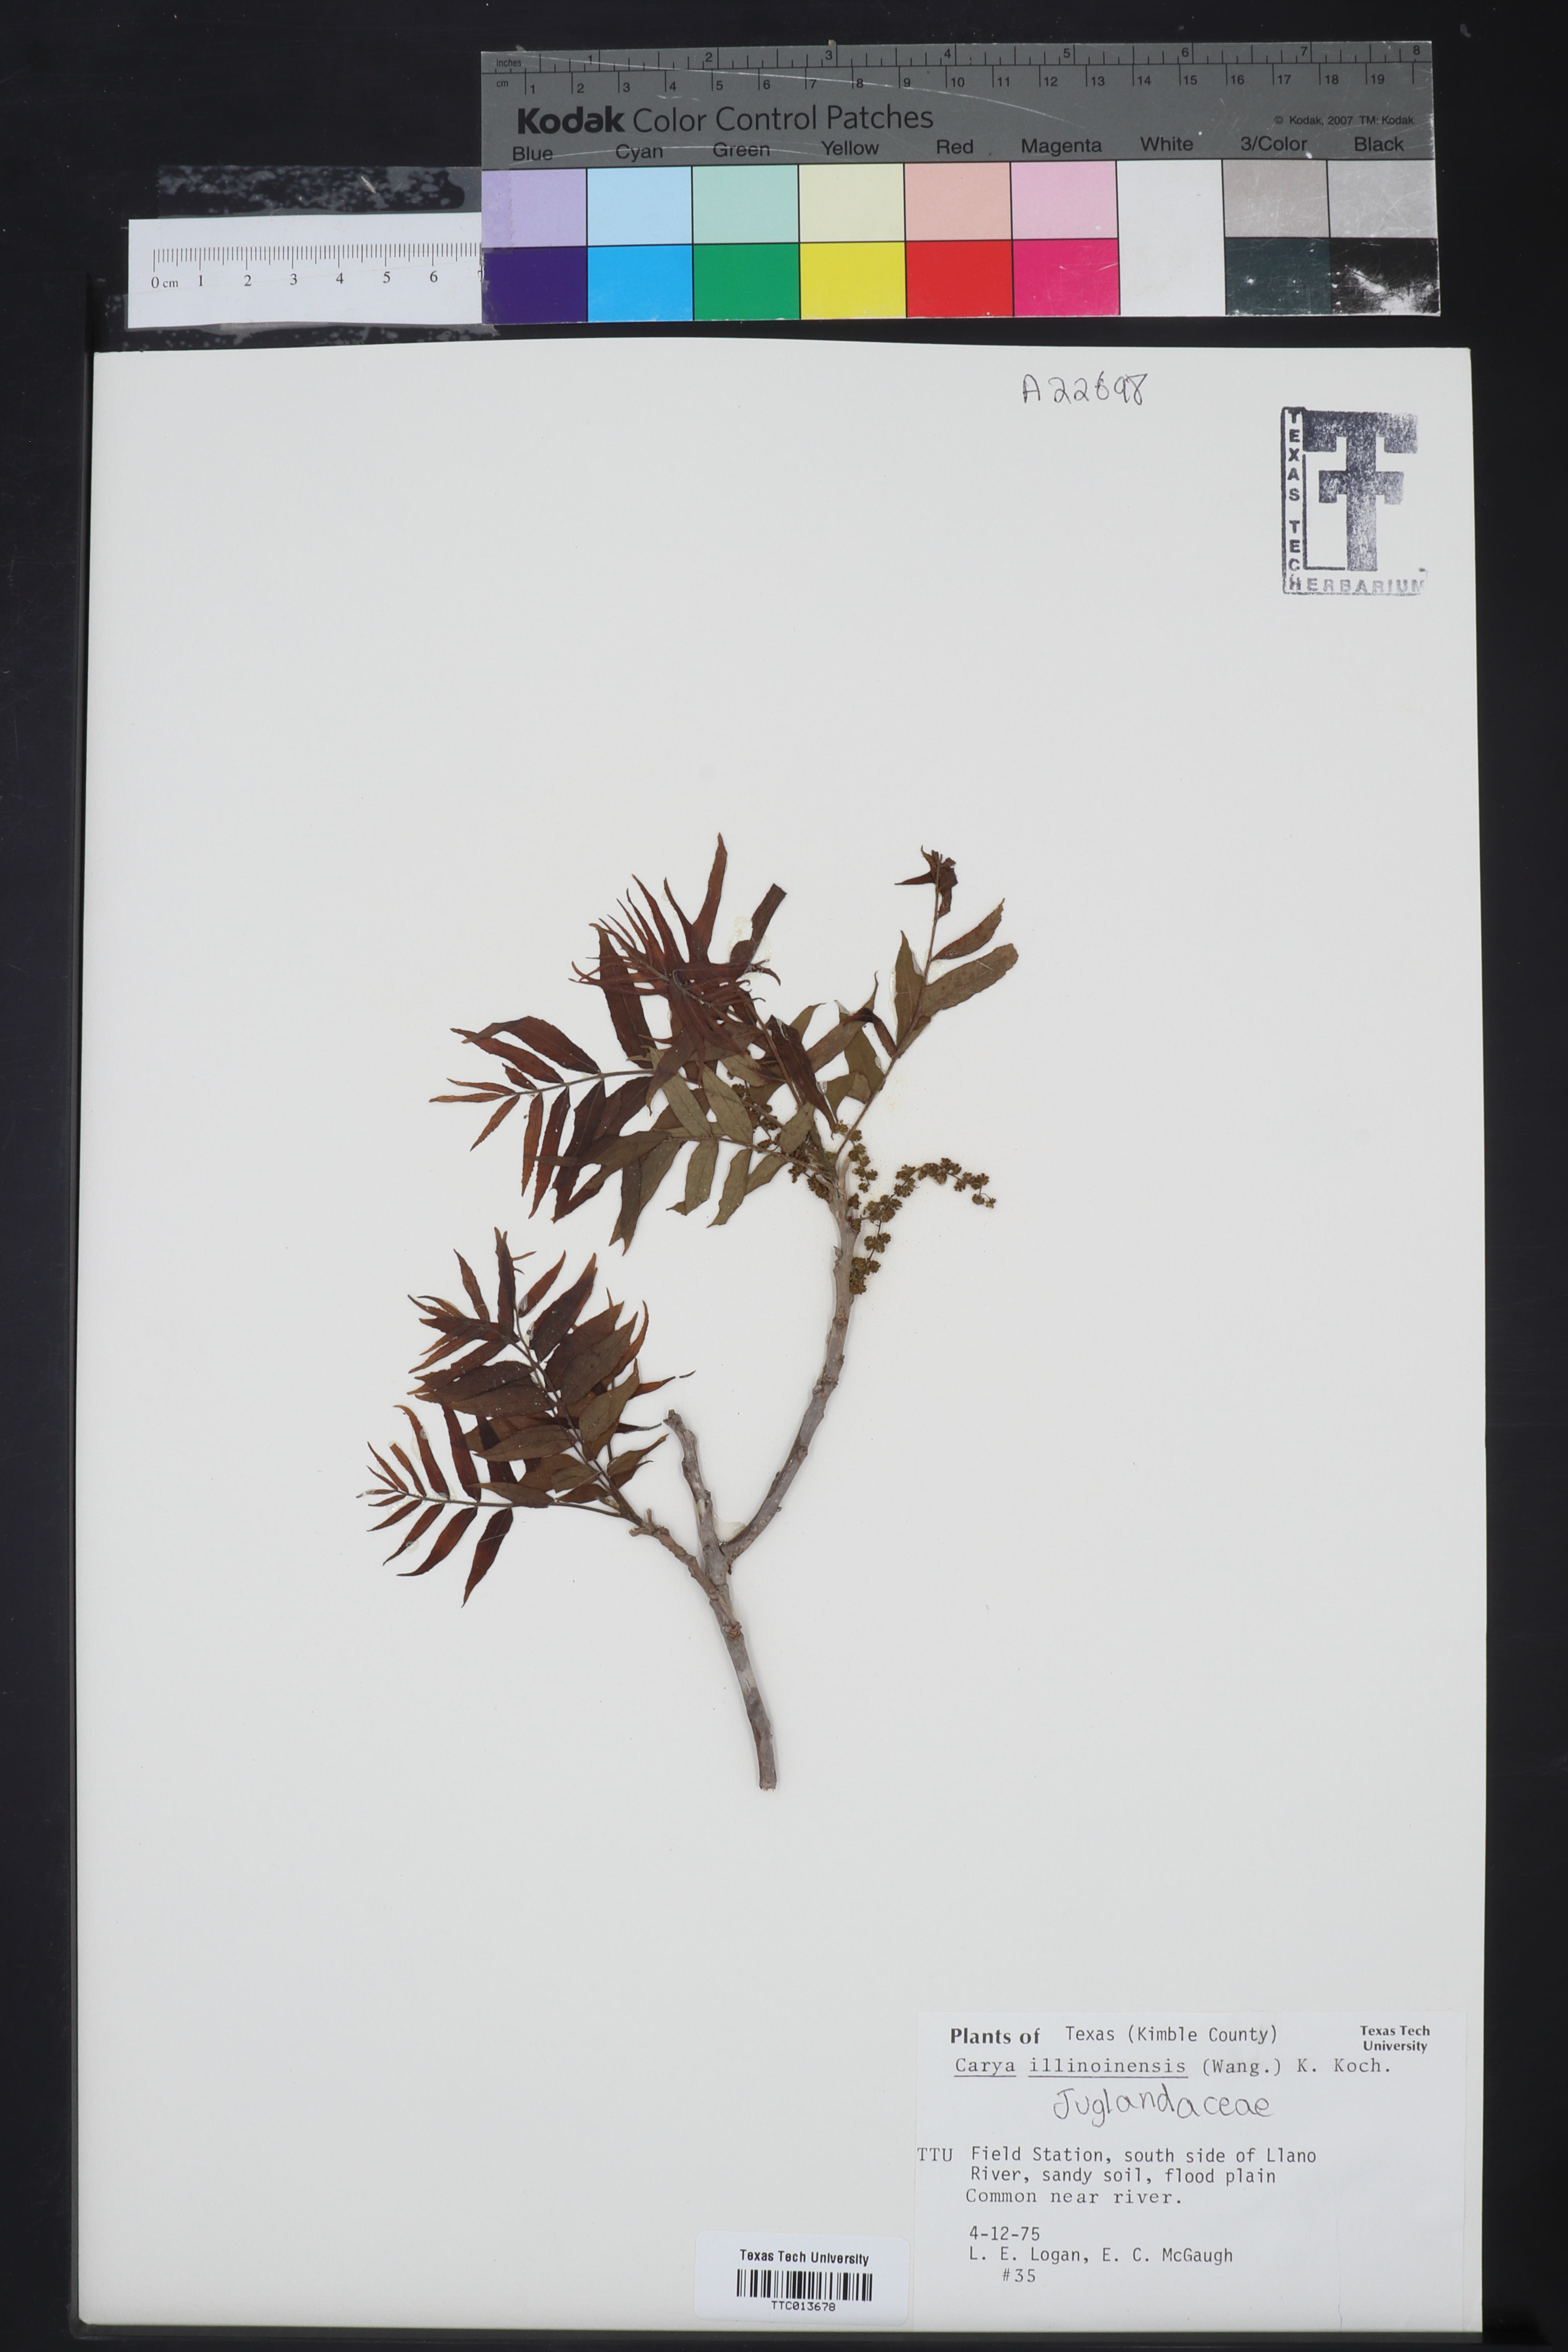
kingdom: Plantae
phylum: Tracheophyta
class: Magnoliopsida
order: Fagales
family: Juglandaceae
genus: Carya
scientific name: Carya
